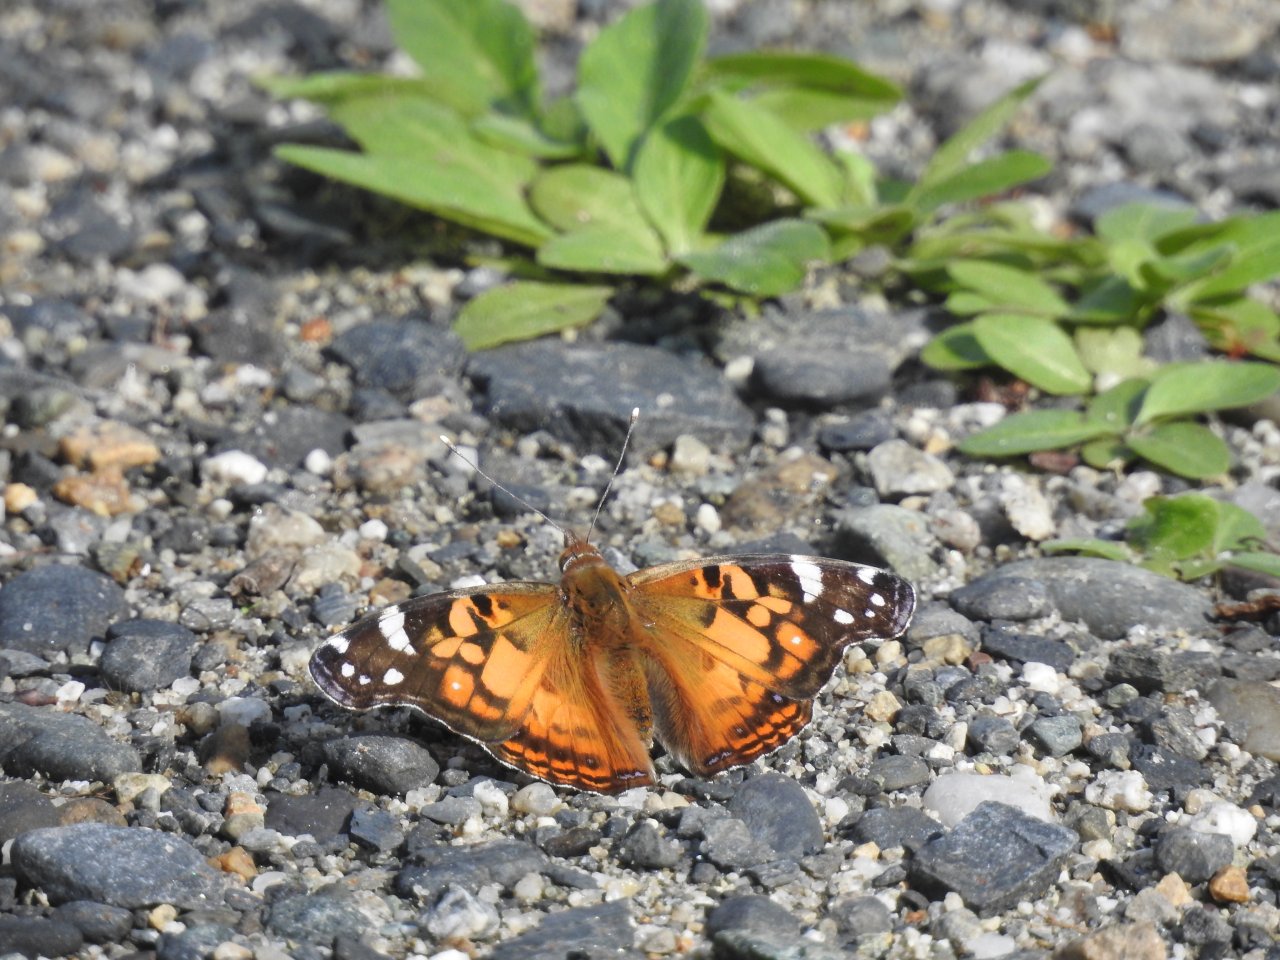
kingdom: Animalia
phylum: Arthropoda
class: Insecta
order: Lepidoptera
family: Nymphalidae
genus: Vanessa
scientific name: Vanessa virginiensis
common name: American Lady
